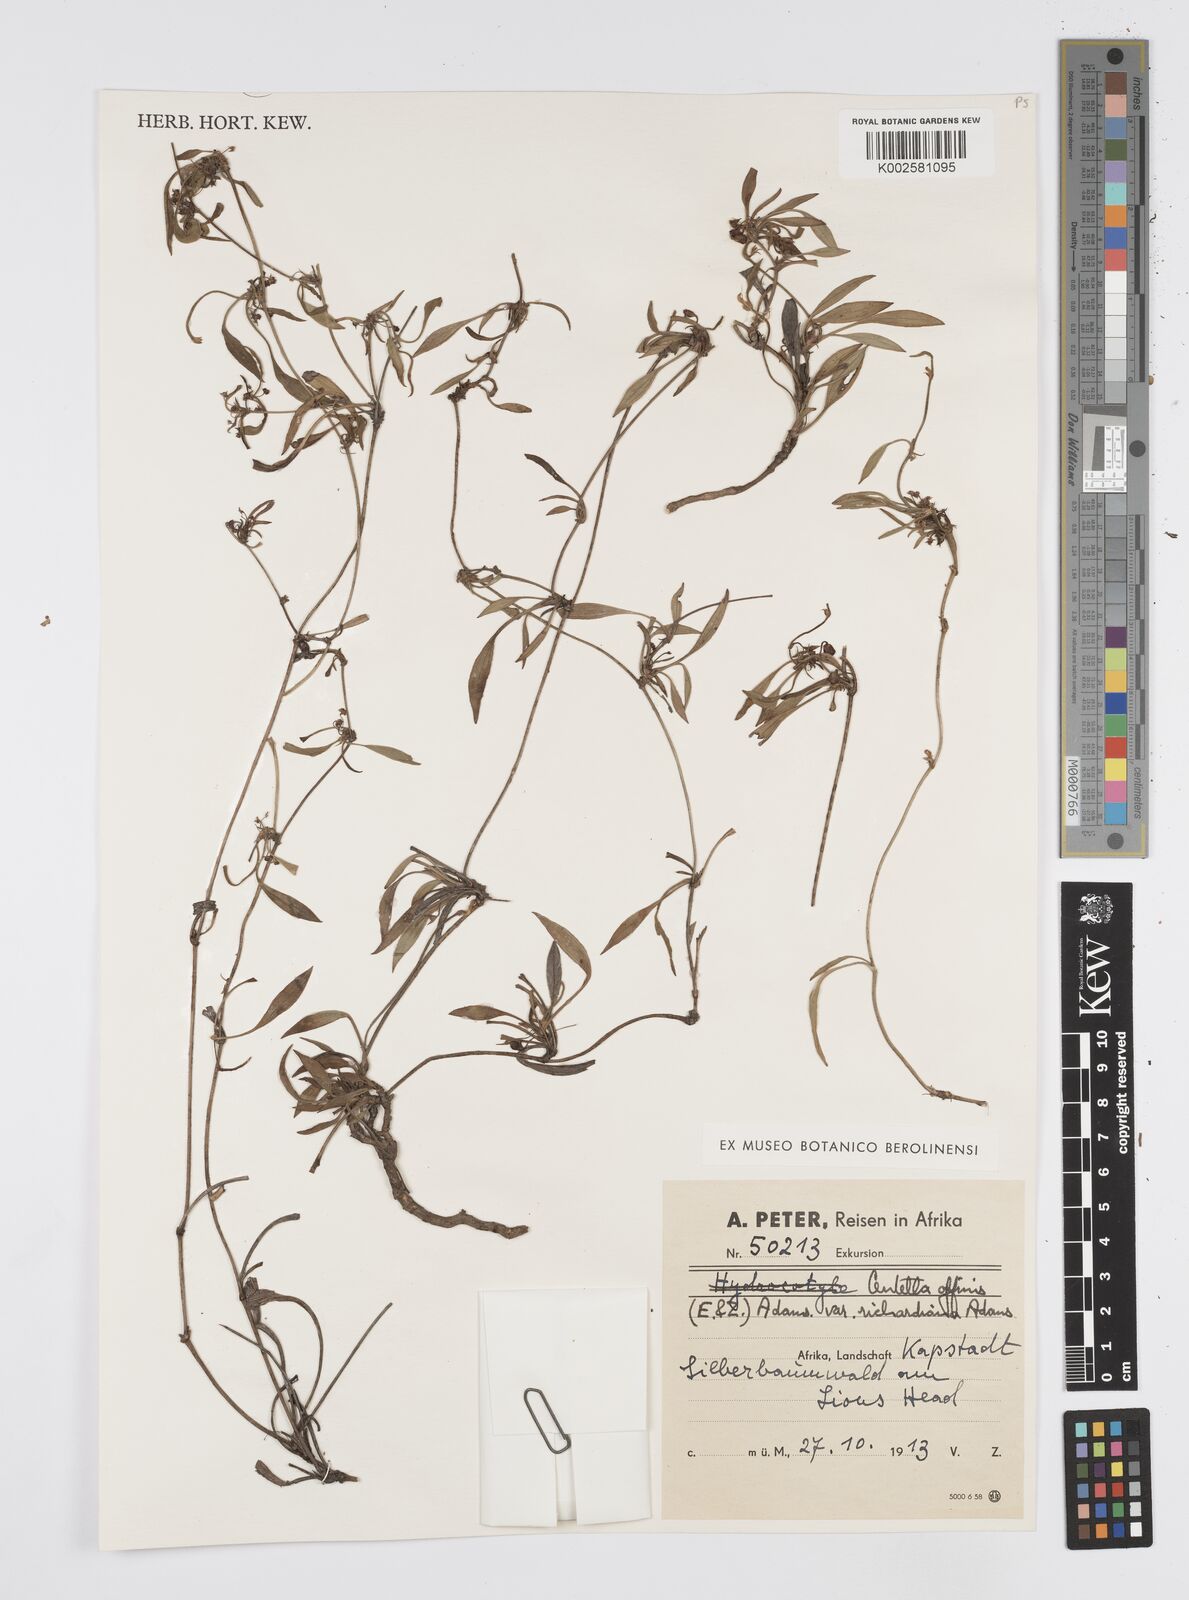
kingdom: Plantae
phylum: Tracheophyta
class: Magnoliopsida
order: Apiales
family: Apiaceae
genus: Centella
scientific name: Centella affinis
